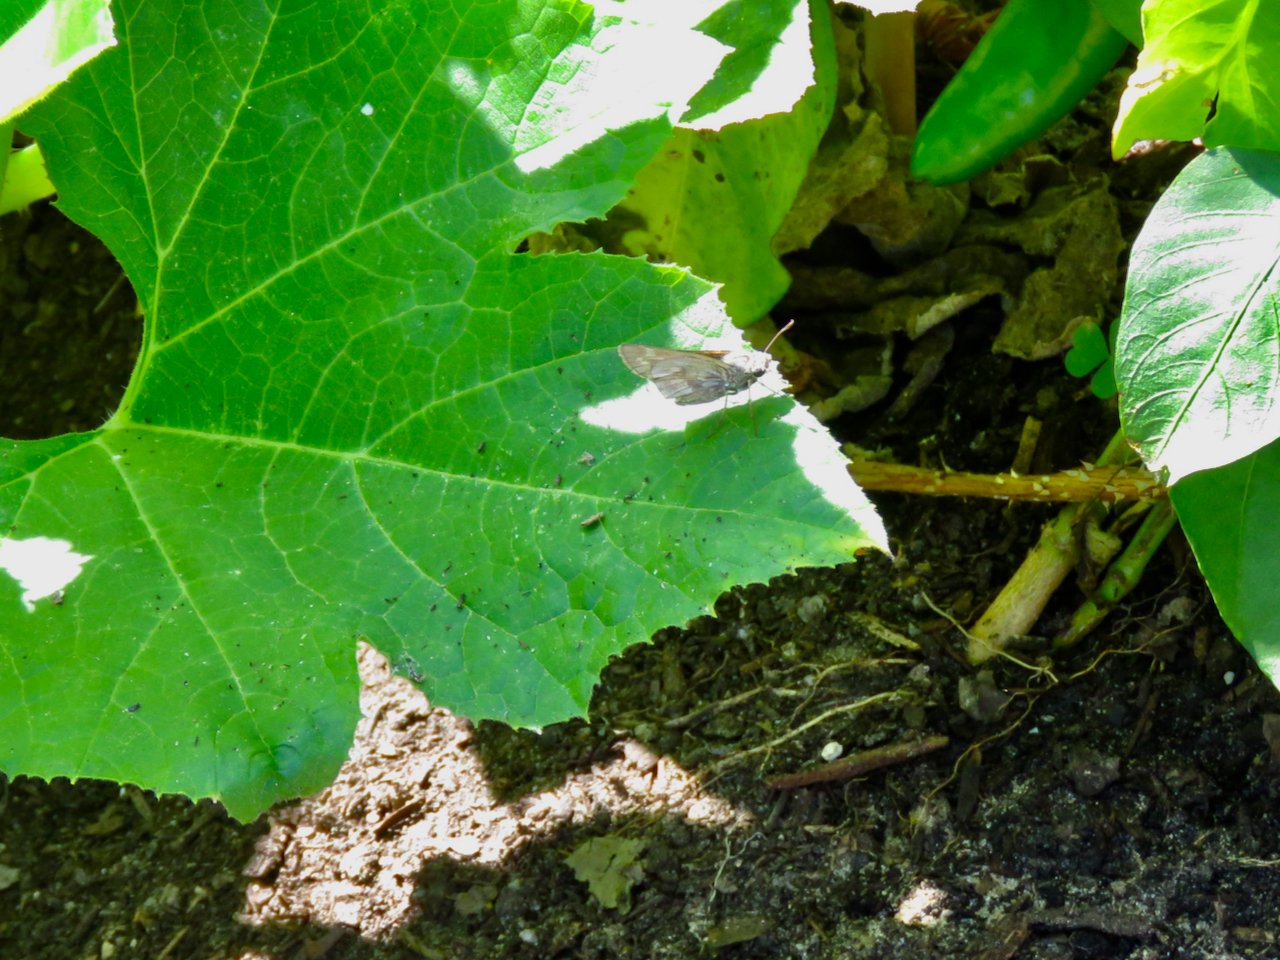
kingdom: Animalia
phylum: Arthropoda
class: Insecta
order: Lepidoptera
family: Hesperiidae
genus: Atalopedes
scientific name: Atalopedes campestris
